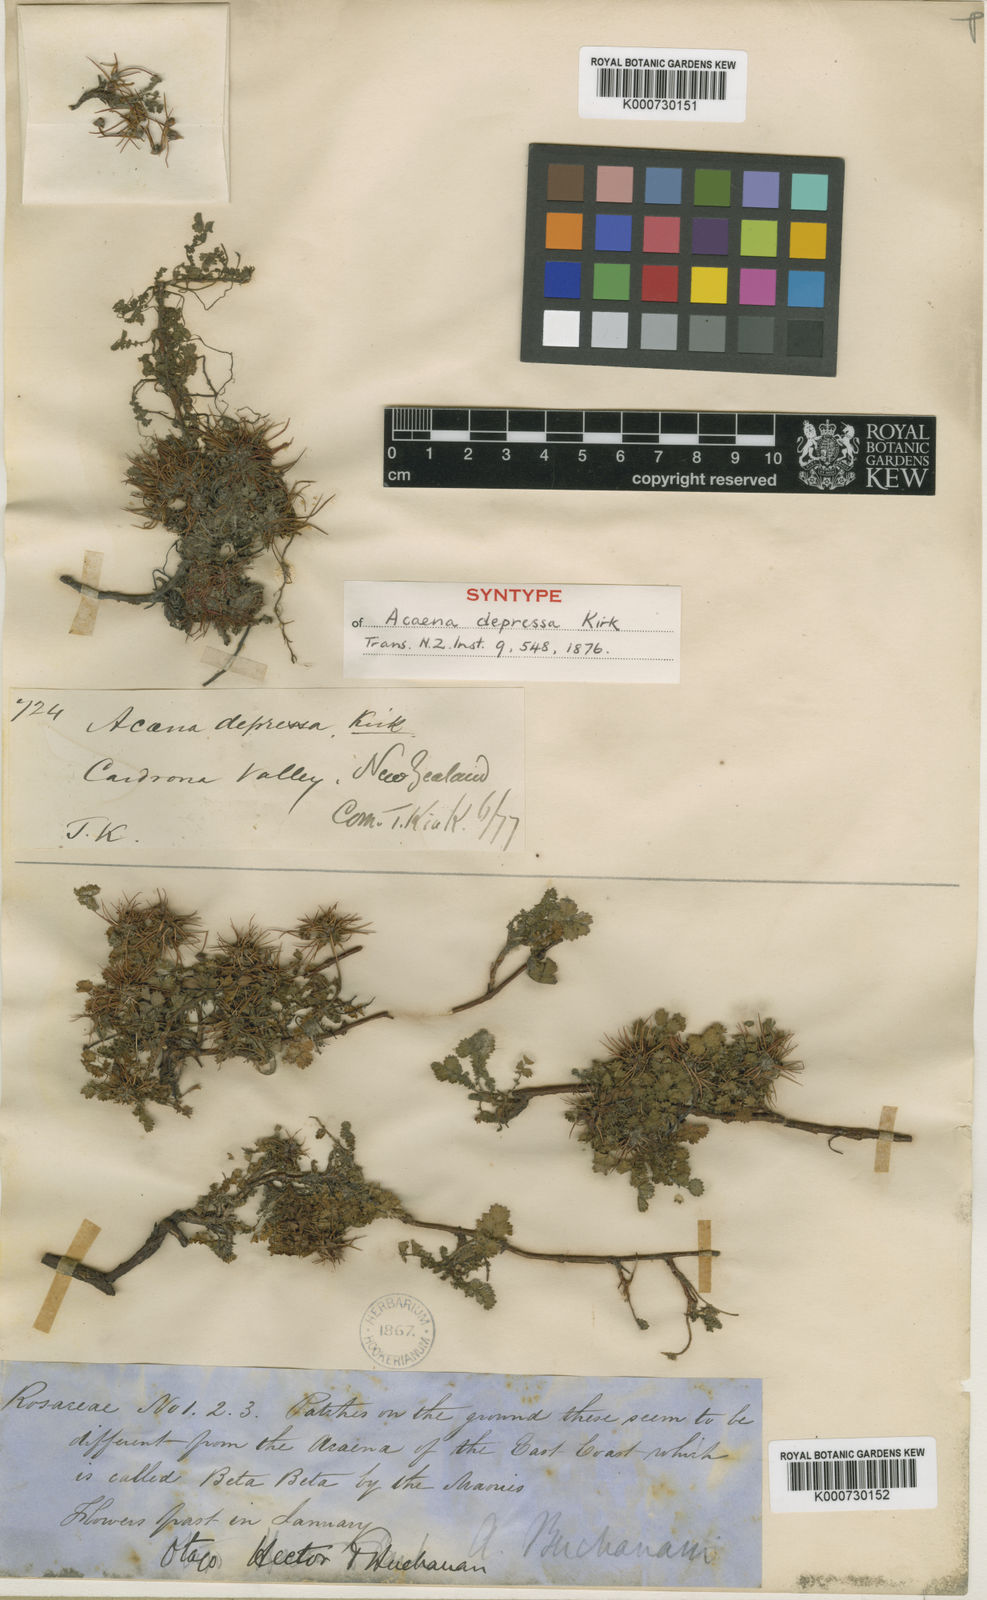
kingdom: Plantae
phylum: Tracheophyta
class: Magnoliopsida
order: Rosales
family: Rosaceae
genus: Acaena
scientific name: Acaena microphylla
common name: New zealand-bur
